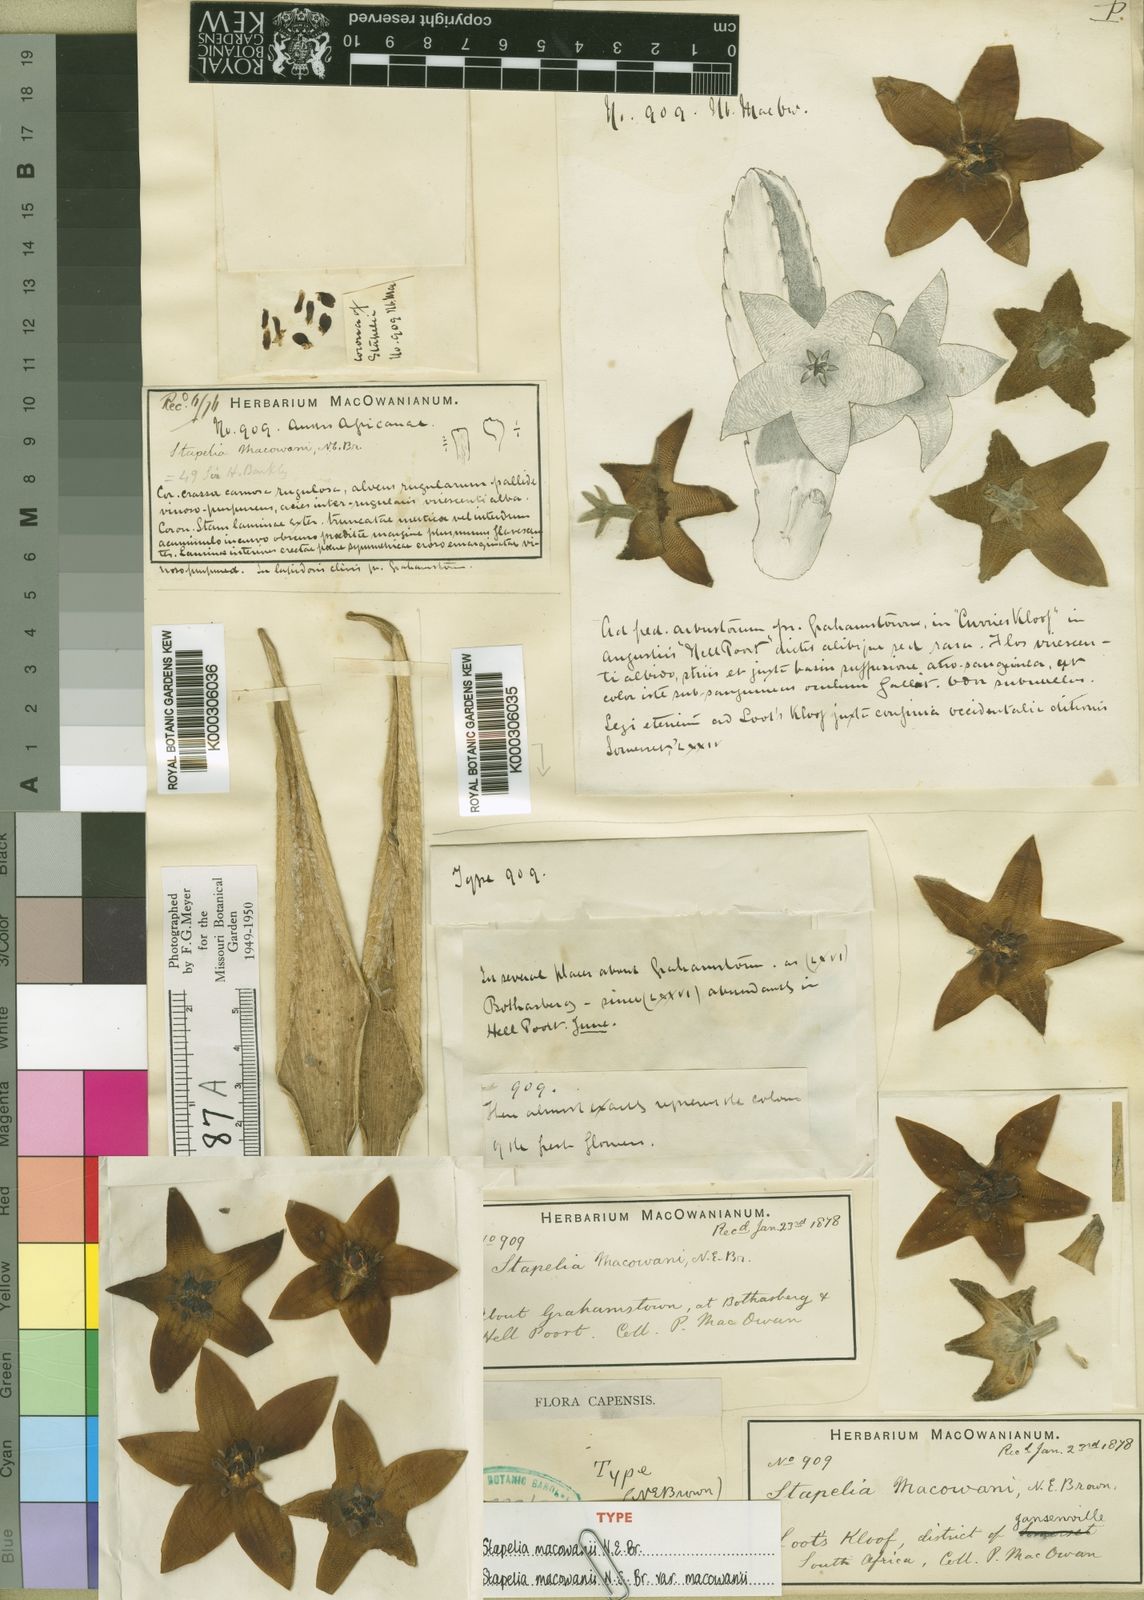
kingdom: Plantae
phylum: Tracheophyta
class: Magnoliopsida
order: Gentianales
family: Apocynaceae
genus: Ceropegia
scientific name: Ceropegia grandiflora
